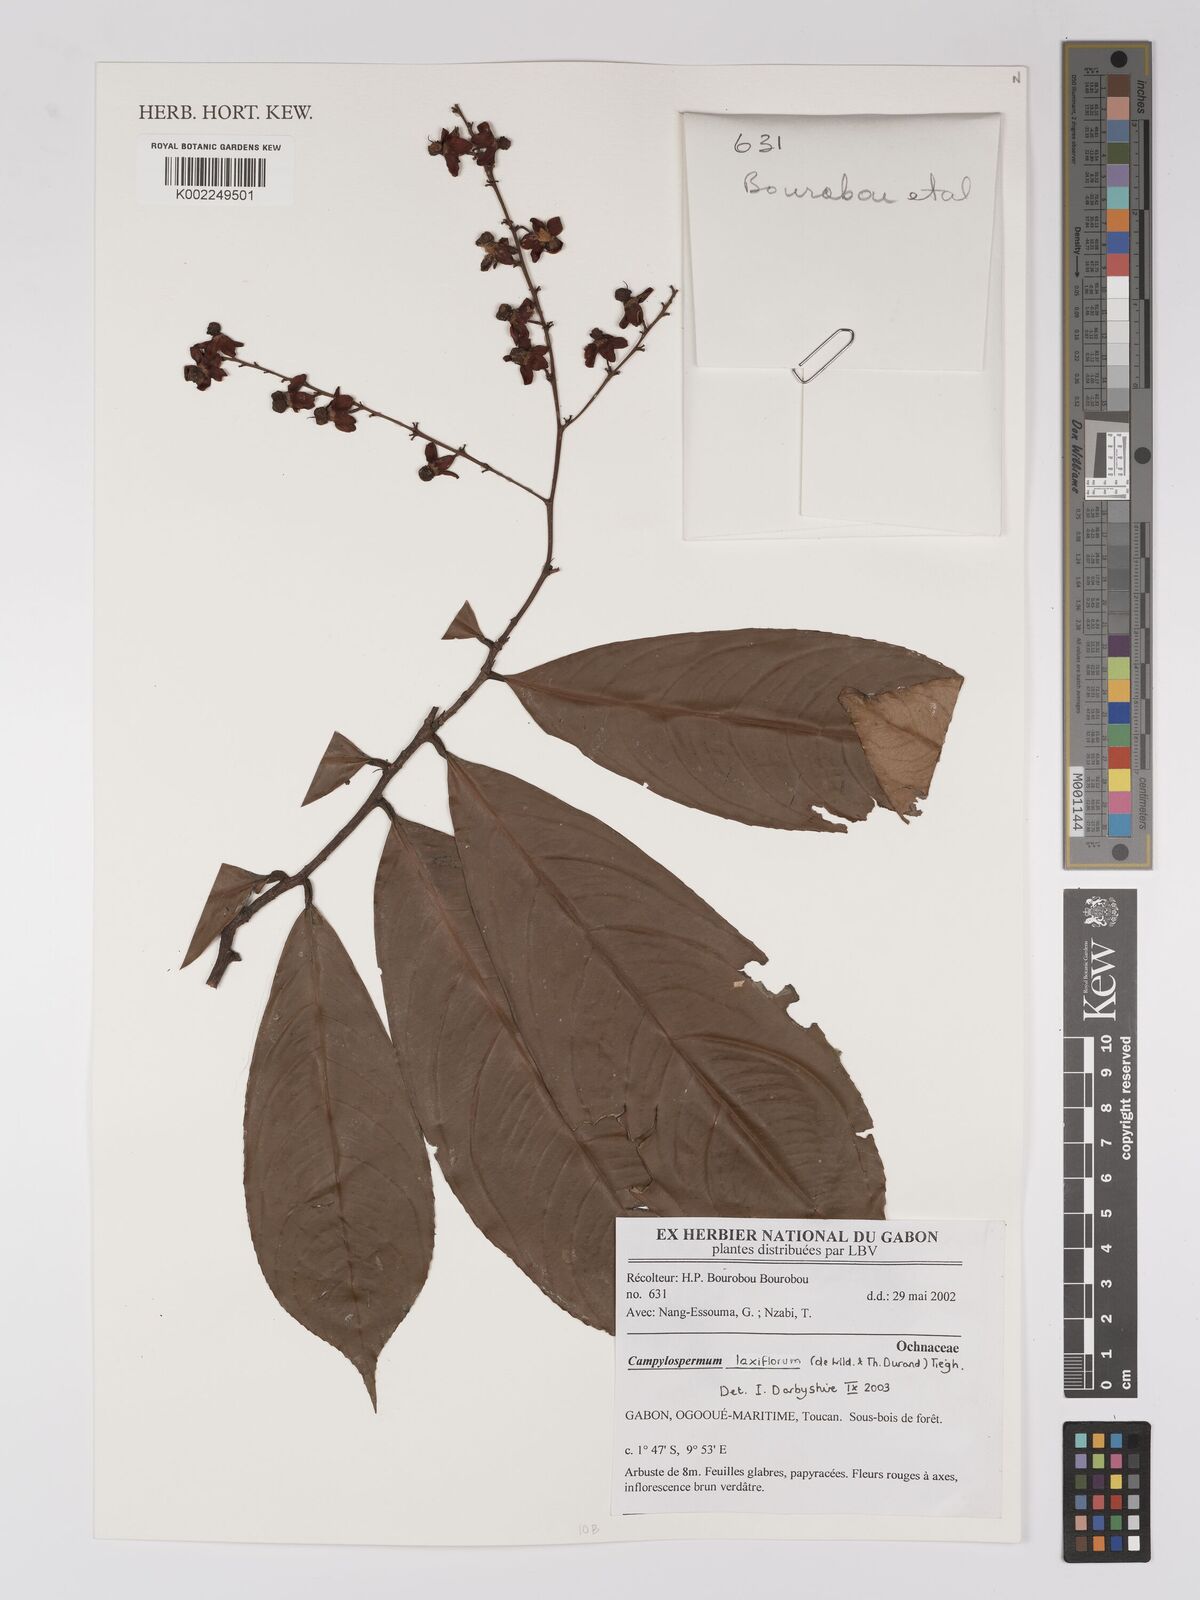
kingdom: Plantae
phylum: Tracheophyta
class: Magnoliopsida
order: Malpighiales
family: Ochnaceae
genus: Campylospermum
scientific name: Campylospermum laxiflorum
